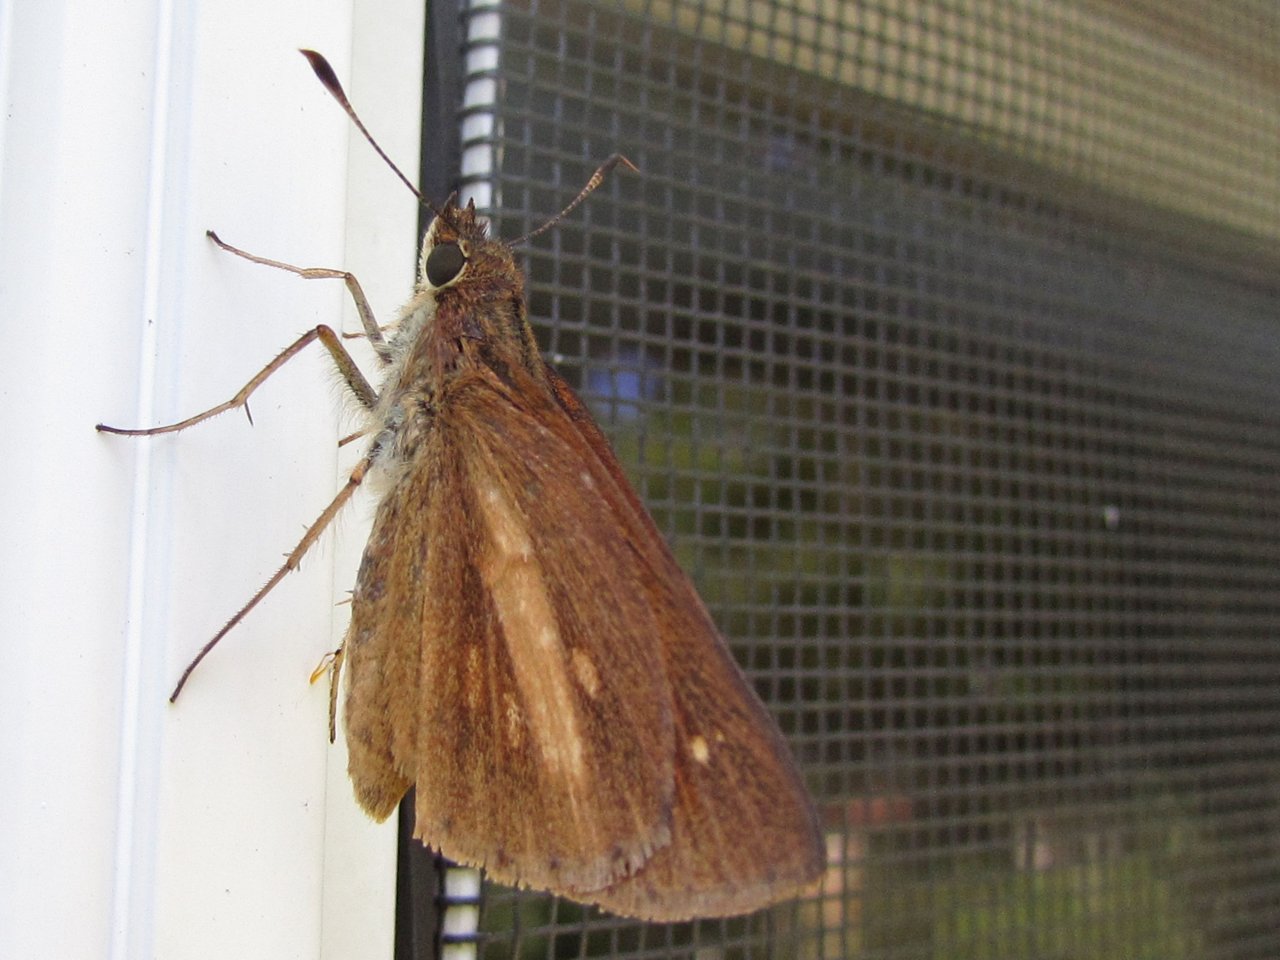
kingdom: Animalia
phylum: Arthropoda
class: Insecta
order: Lepidoptera
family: Hesperiidae
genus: Poanes
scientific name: Poanes viator
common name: Broad-winged Skipper
